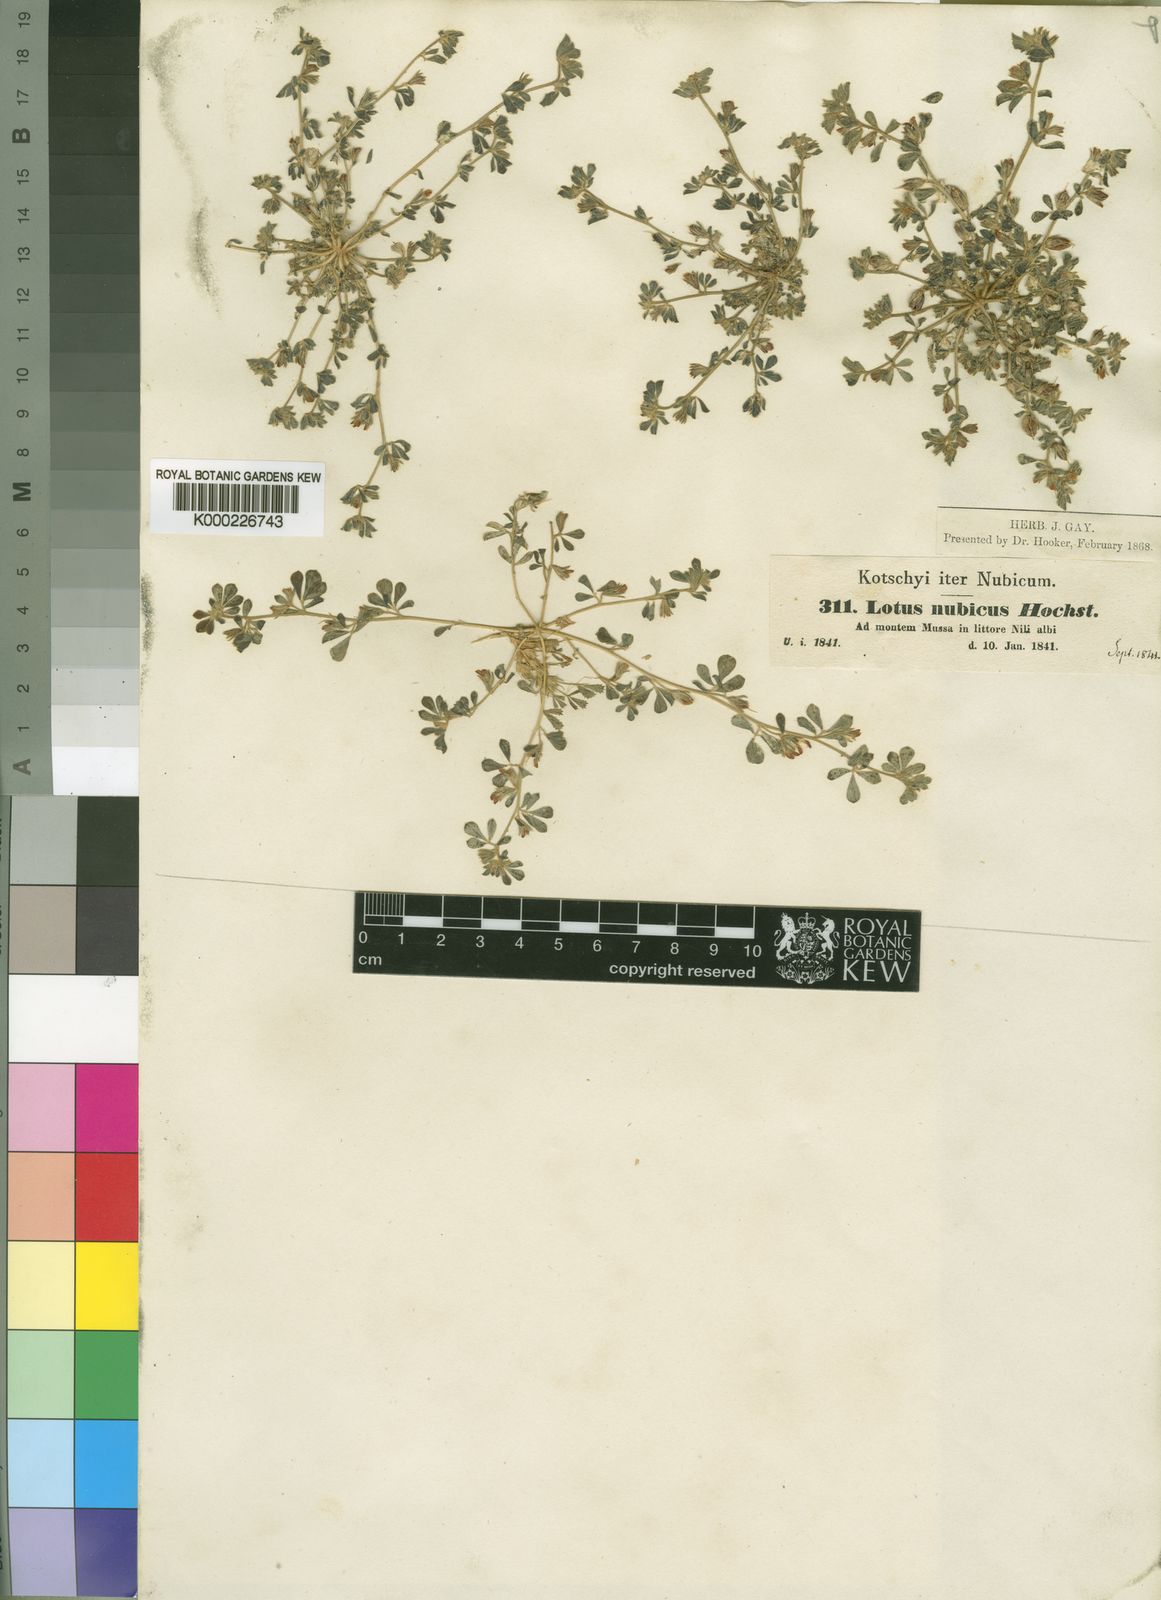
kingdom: Plantae
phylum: Tracheophyta
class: Magnoliopsida
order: Fabales
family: Fabaceae
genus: Lotus
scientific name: Lotus nubicus
